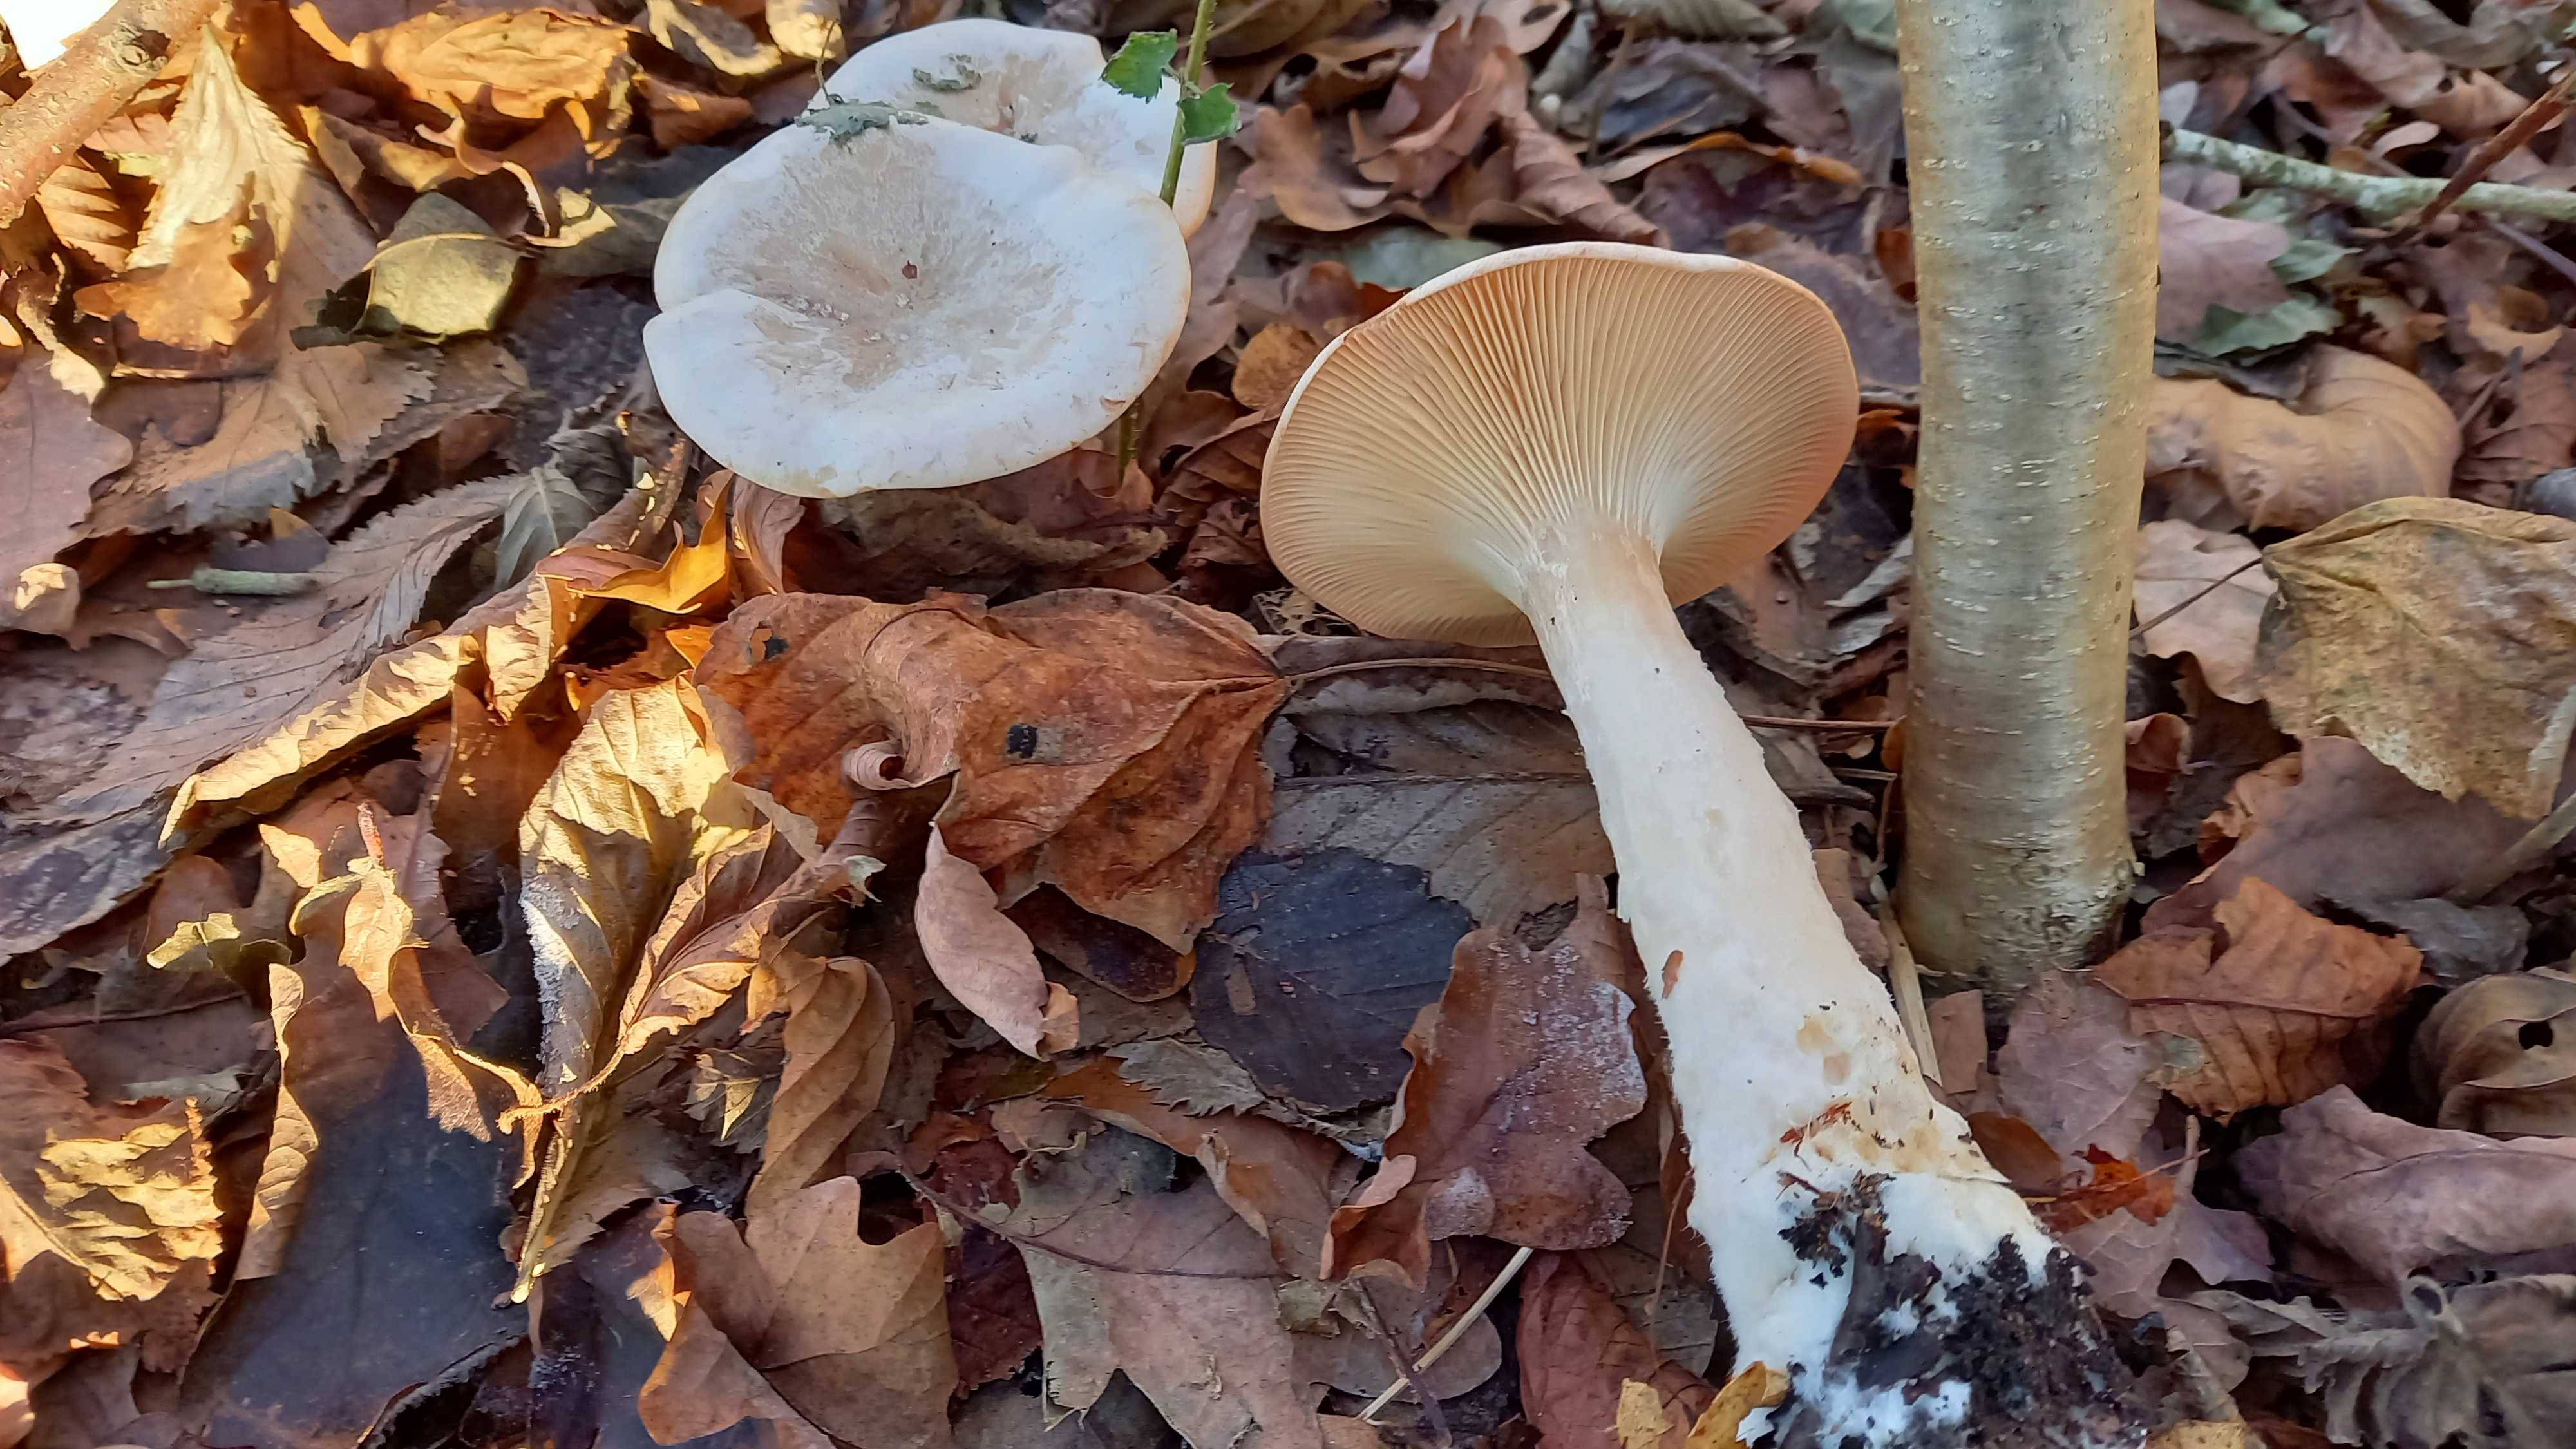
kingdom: Fungi
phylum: Basidiomycota
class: Agaricomycetes
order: Agaricales
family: Tricholomataceae
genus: Infundibulicybe
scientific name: Infundibulicybe geotropa
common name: stor tragthat
